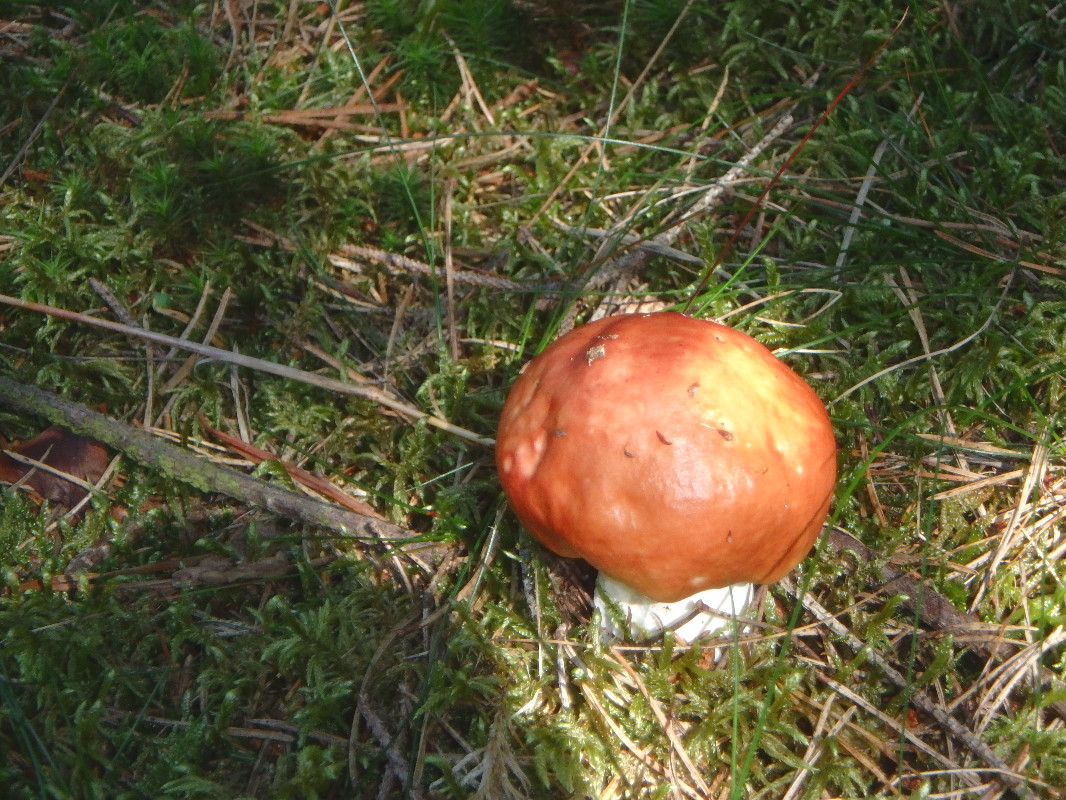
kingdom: Fungi
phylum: Basidiomycota
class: Agaricomycetes
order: Russulales
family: Russulaceae
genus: Russula
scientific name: Russula paludosa
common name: prægtig skørhat
